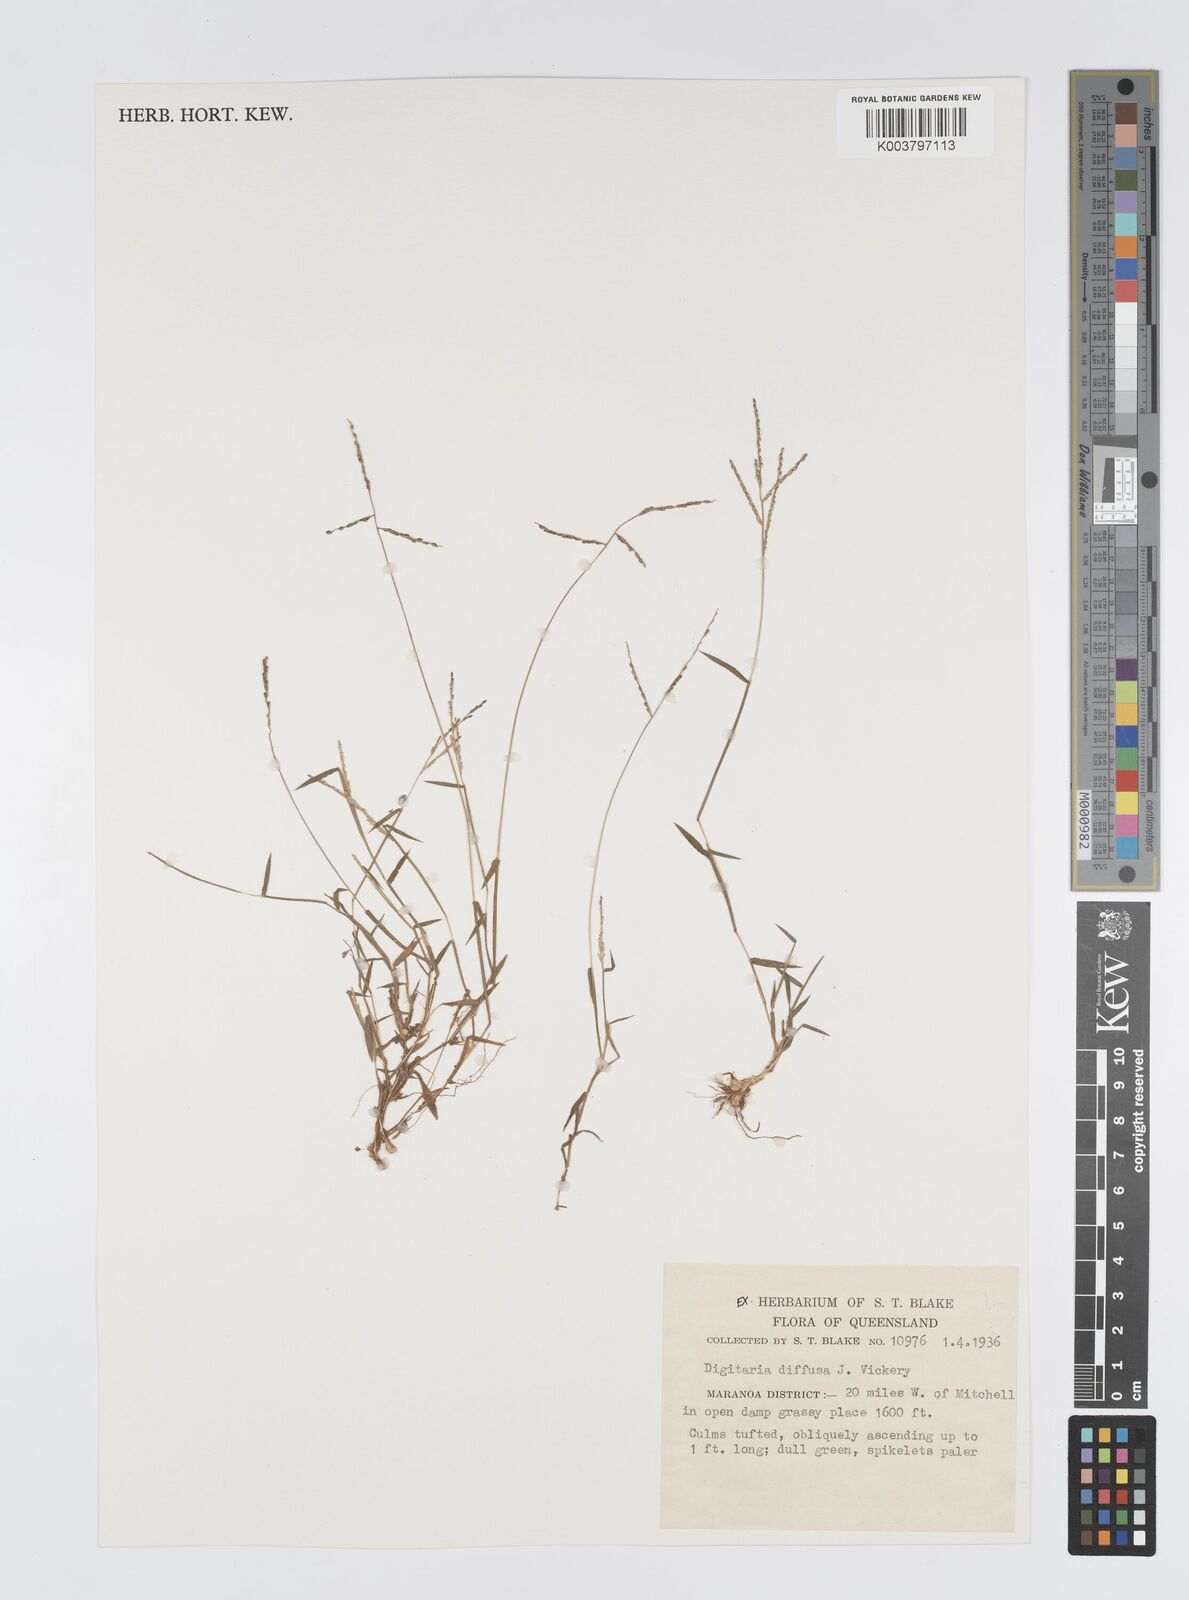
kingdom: Plantae
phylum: Tracheophyta
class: Liliopsida
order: Poales
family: Poaceae
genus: Digitaria
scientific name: Digitaria diffusa
